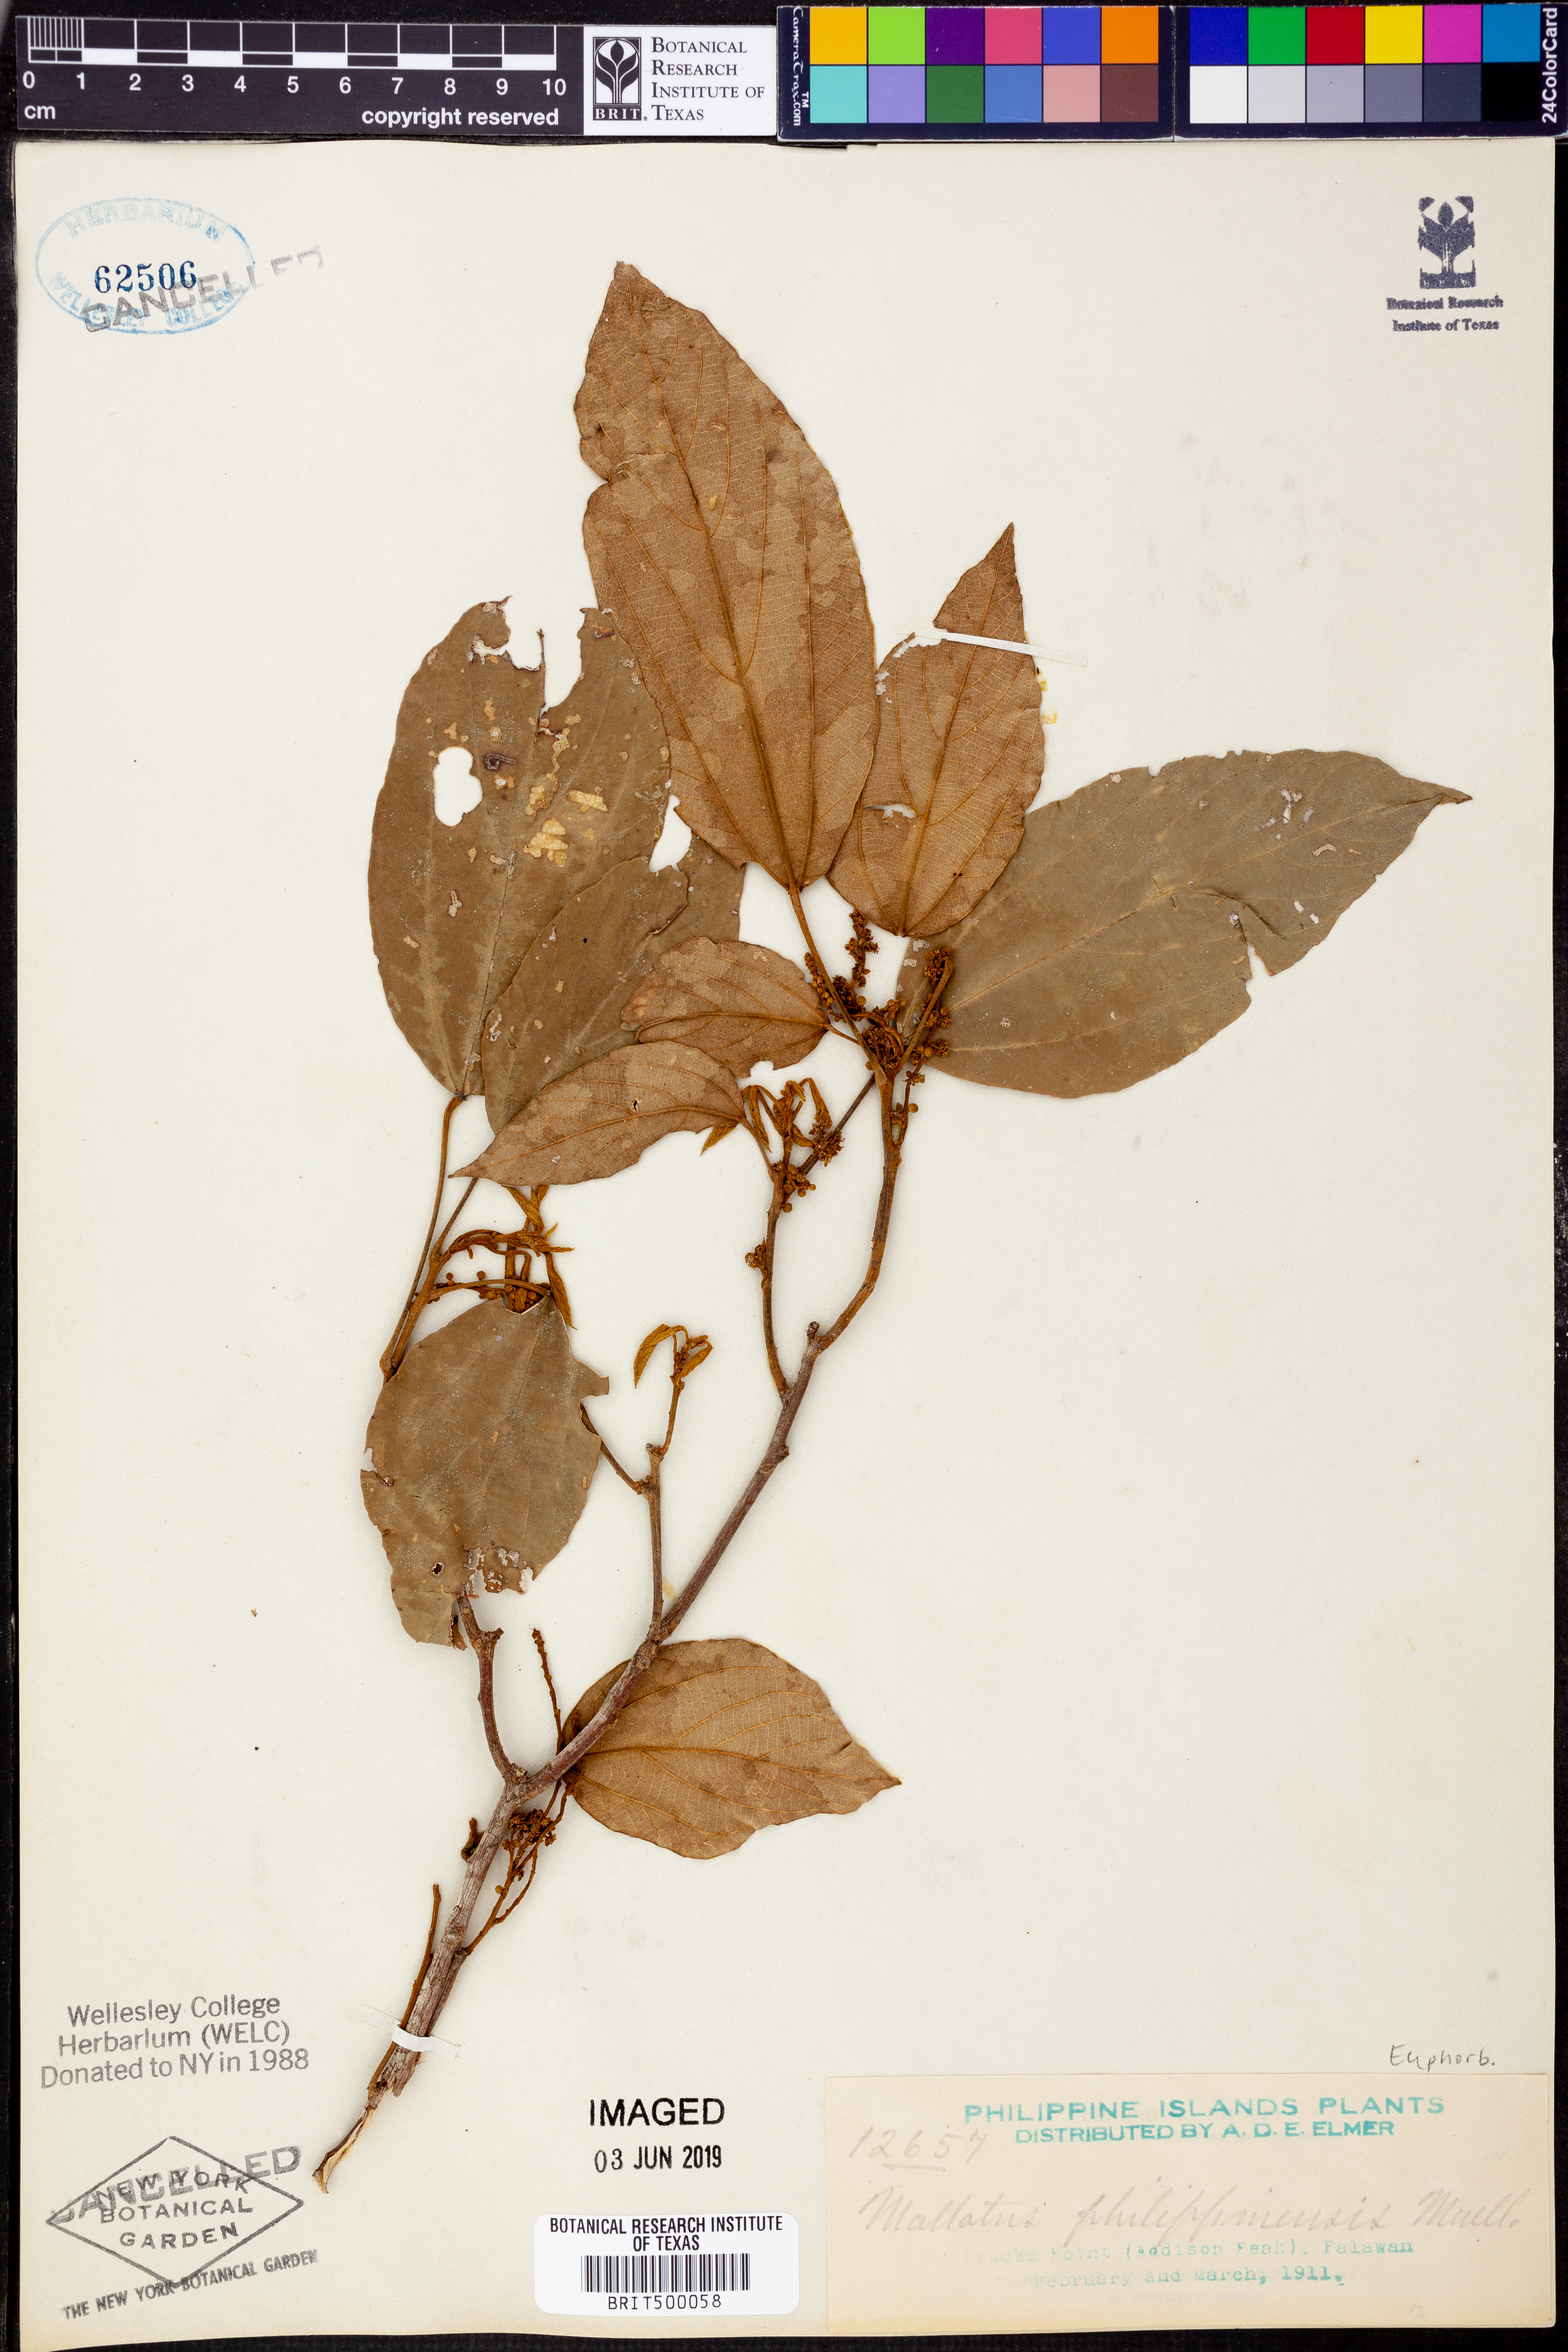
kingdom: Plantae
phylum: Tracheophyta
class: Magnoliopsida
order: Malpighiales
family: Euphorbiaceae
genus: Mallotus
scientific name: Mallotus philippensis
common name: Kamala tree
